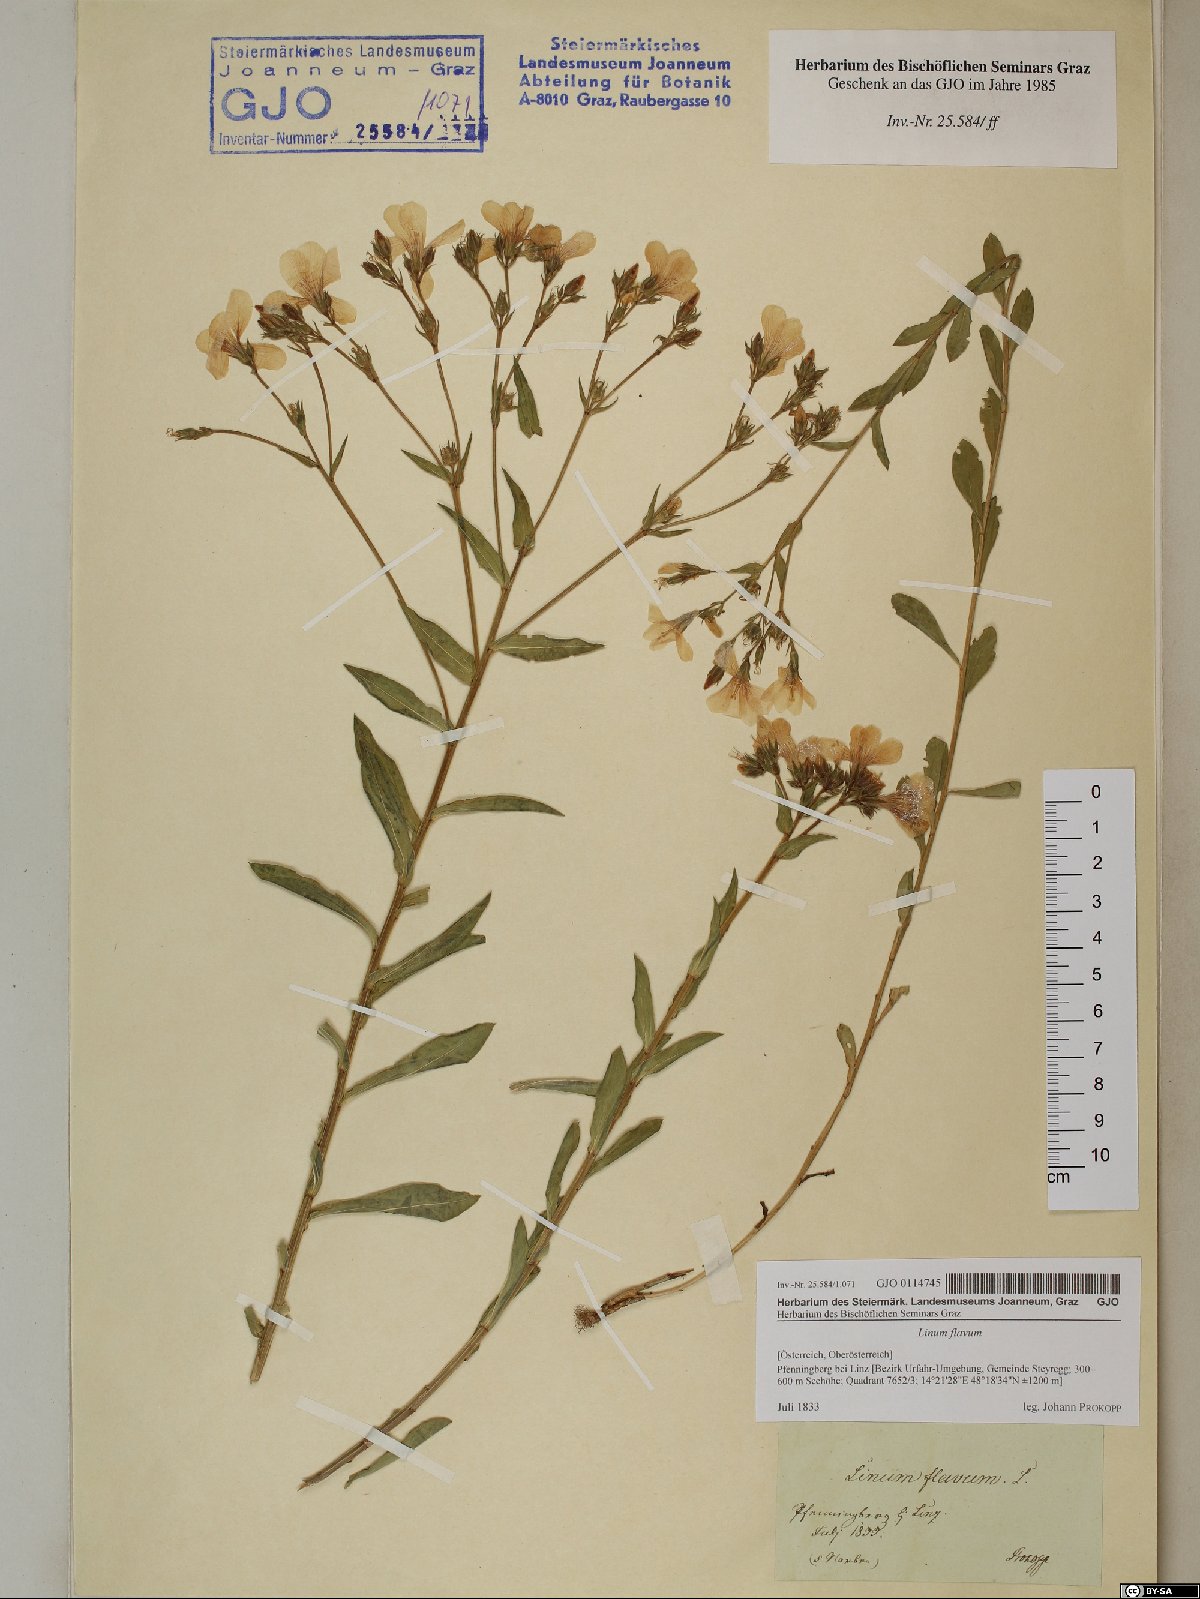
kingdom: Plantae
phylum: Tracheophyta
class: Magnoliopsida
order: Malpighiales
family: Linaceae
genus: Linum
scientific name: Linum flavum
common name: Yellow flax
